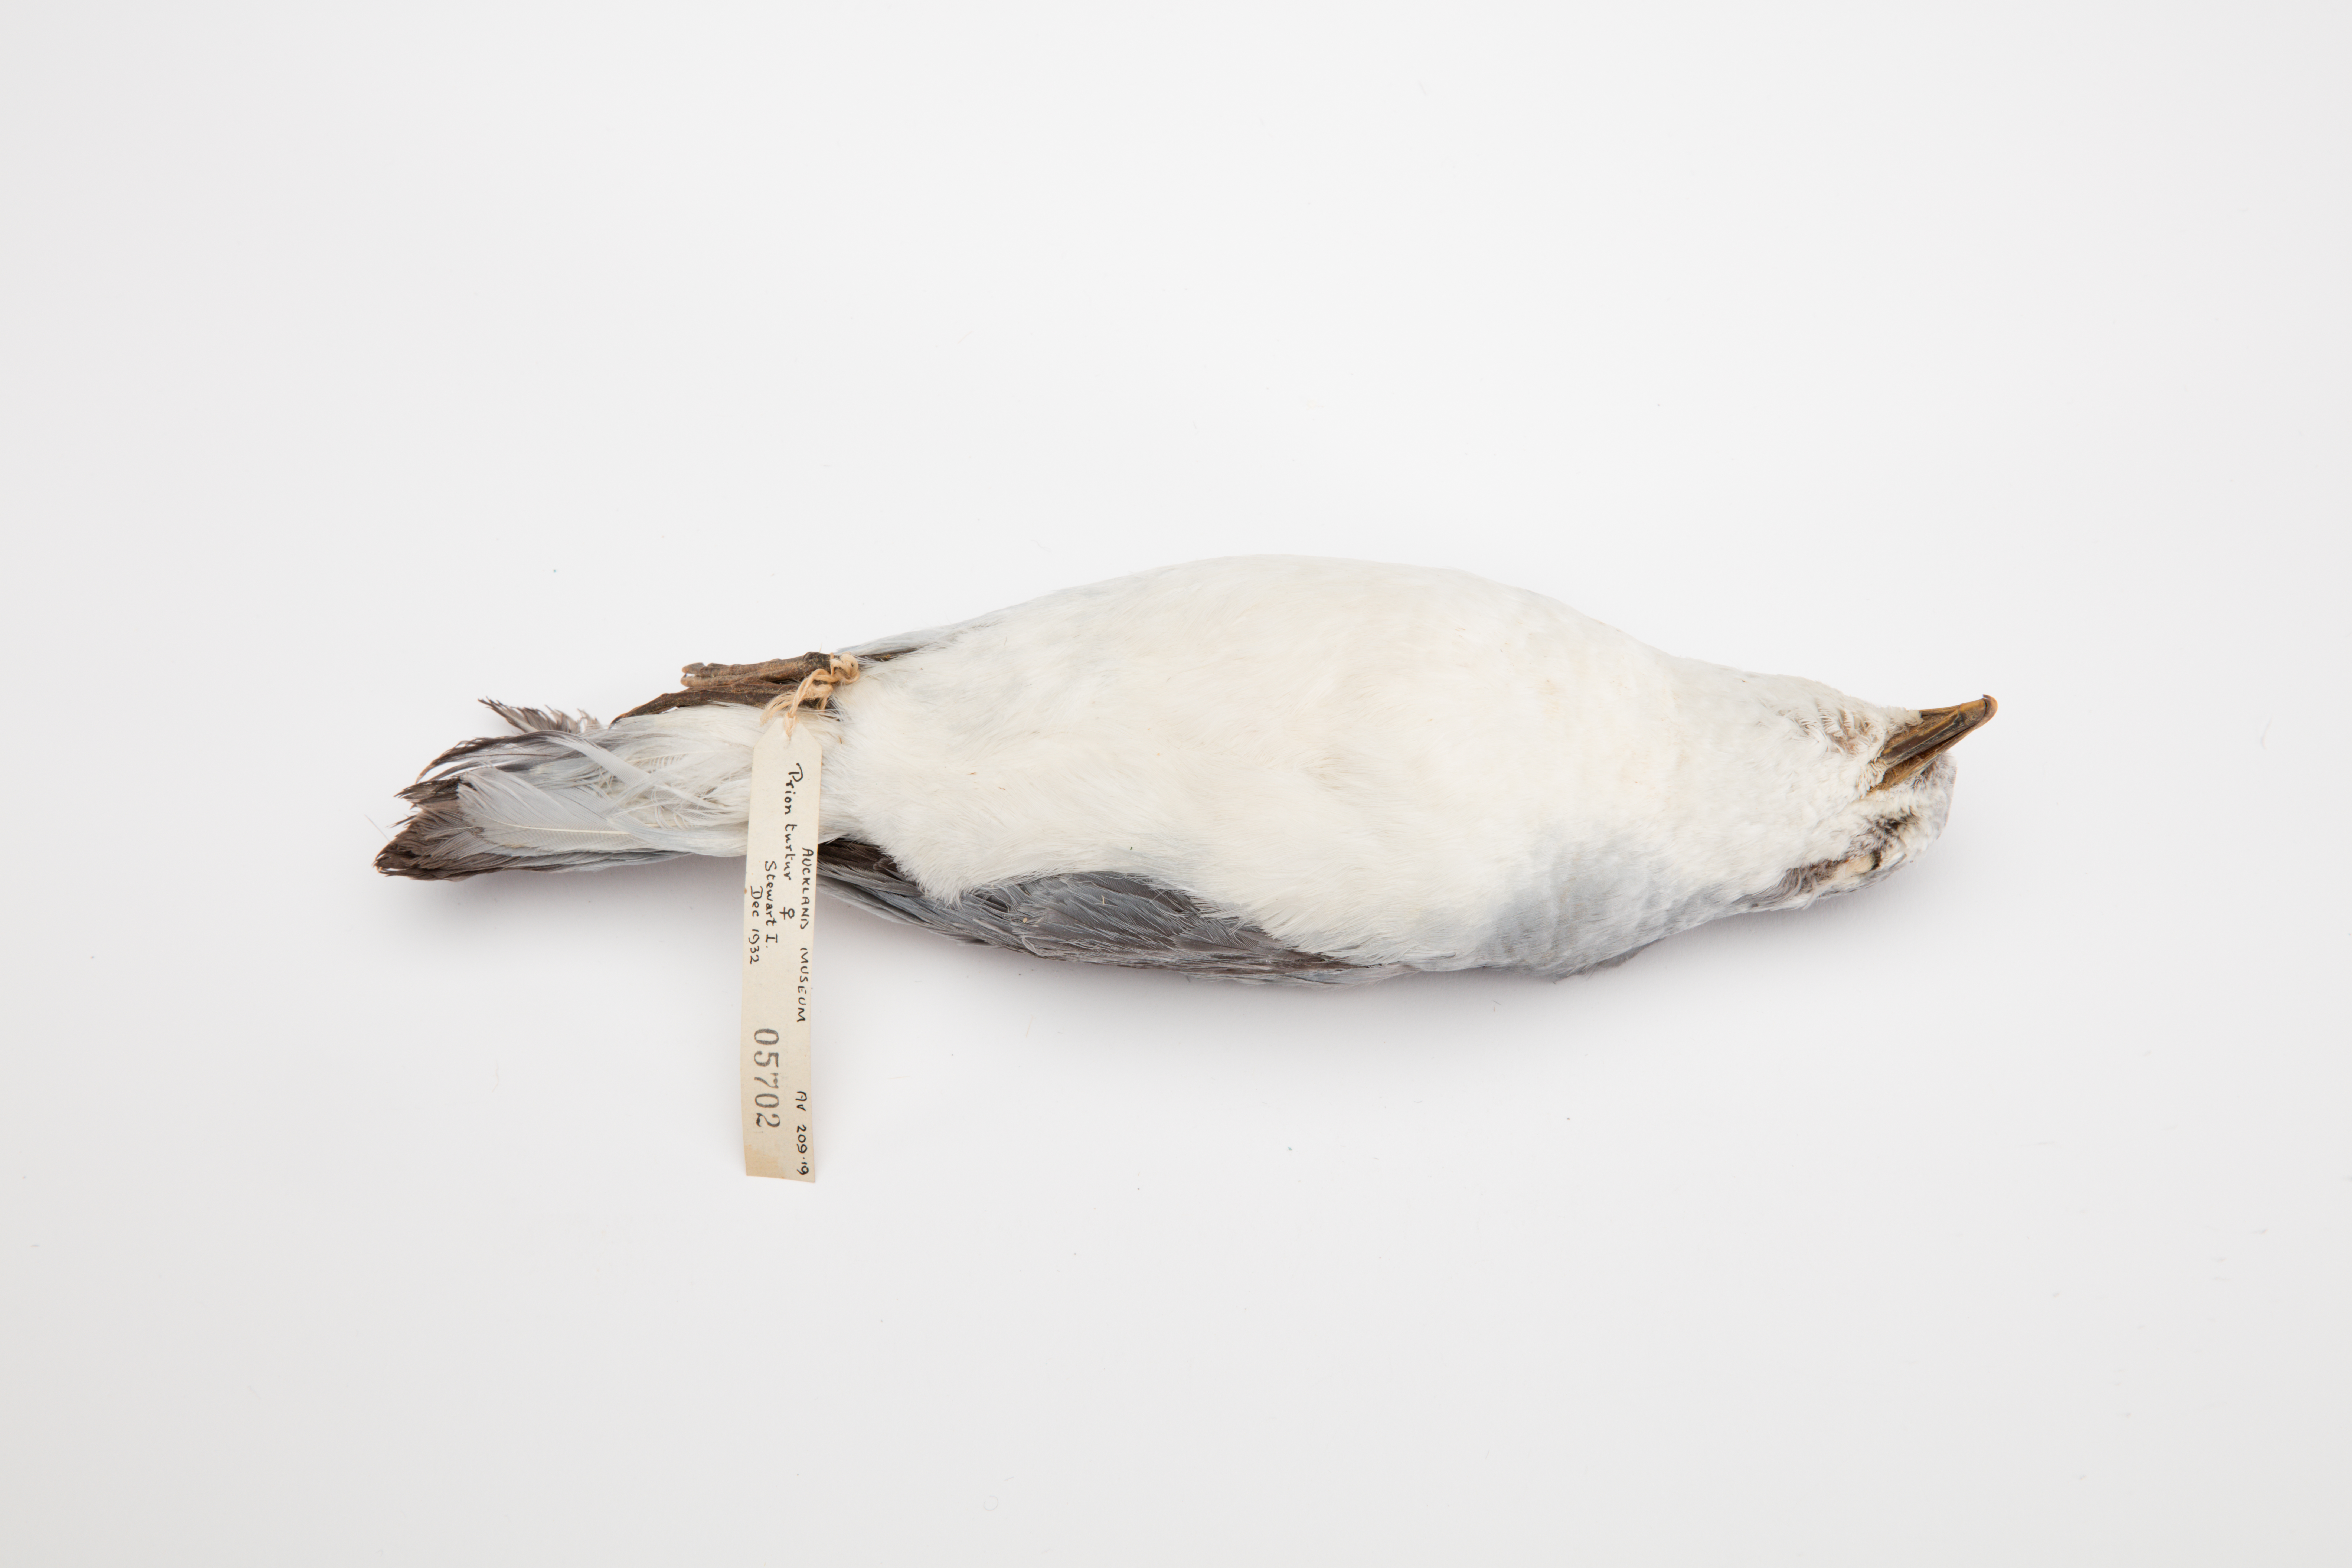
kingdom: Animalia
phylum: Chordata
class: Aves
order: Procellariiformes
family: Procellariidae
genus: Pachyptila
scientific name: Pachyptila turtur
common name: Fairy prion
